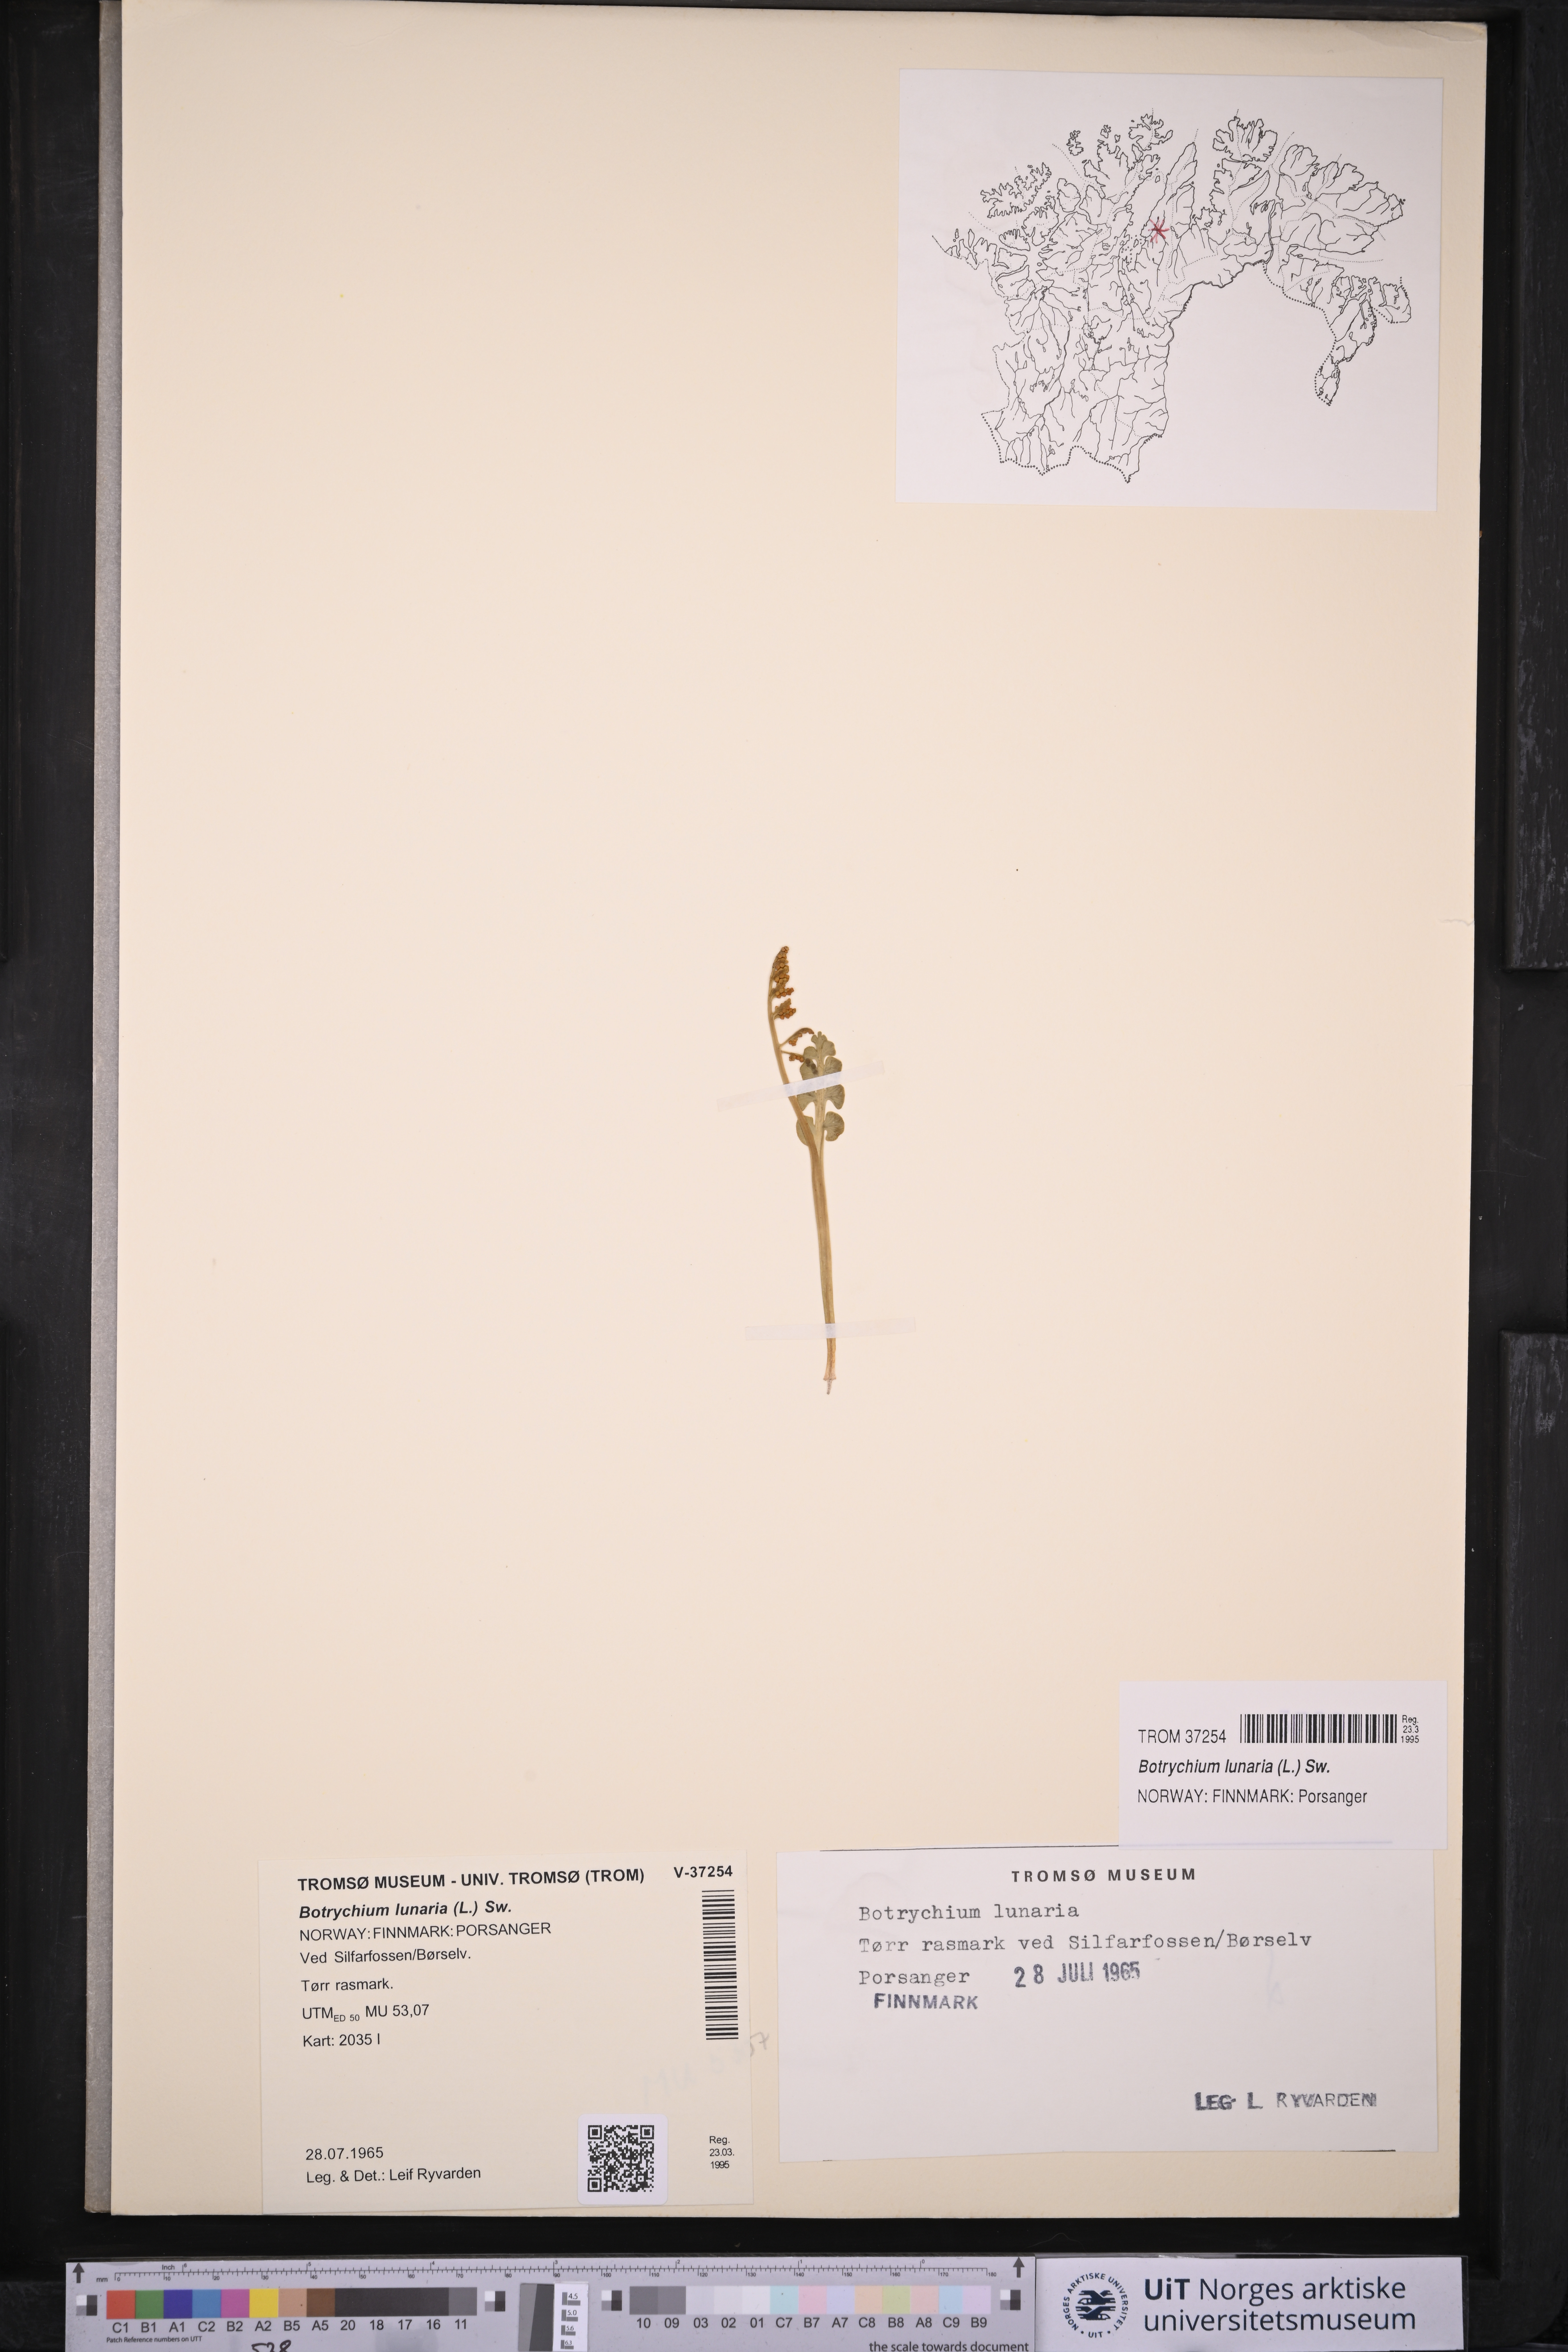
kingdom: Plantae
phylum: Tracheophyta
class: Polypodiopsida
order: Ophioglossales
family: Ophioglossaceae
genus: Botrychium
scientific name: Botrychium lunaria
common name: Moonwort
